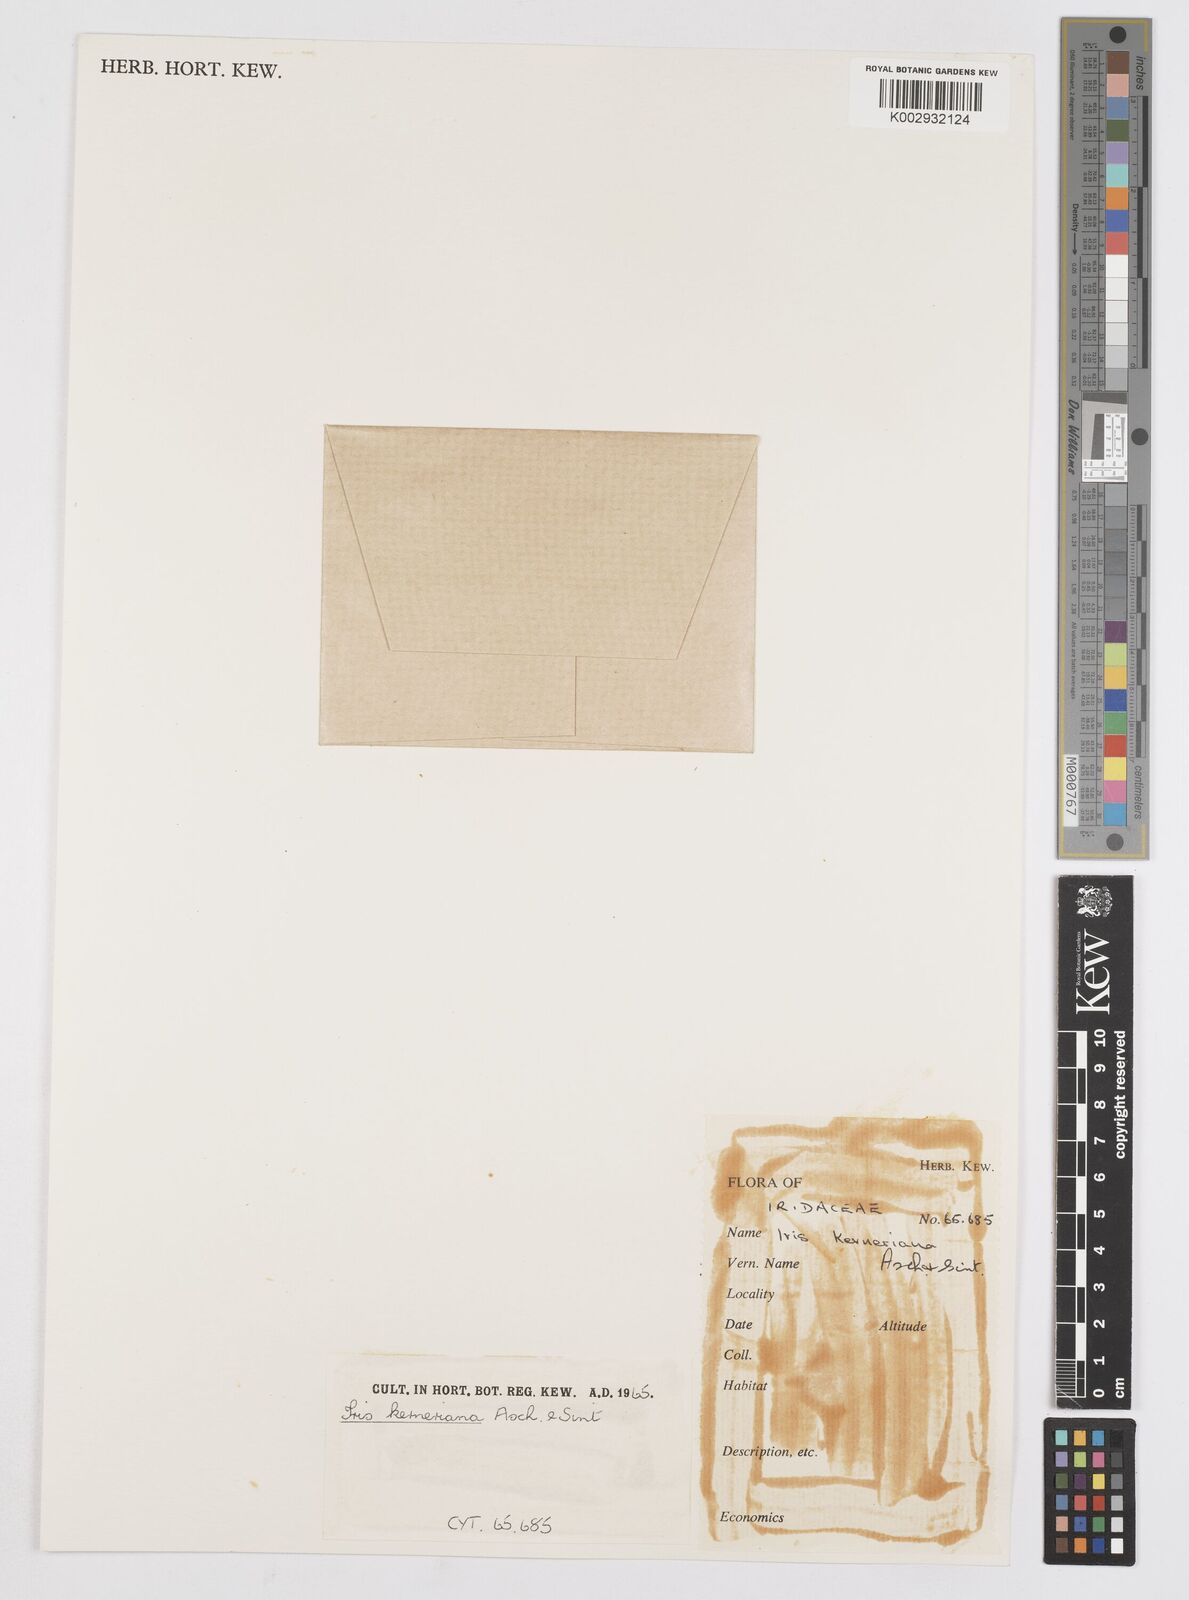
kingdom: Plantae
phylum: Tracheophyta
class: Liliopsida
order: Asparagales
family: Iridaceae
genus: Iris
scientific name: Iris haussknechtii
